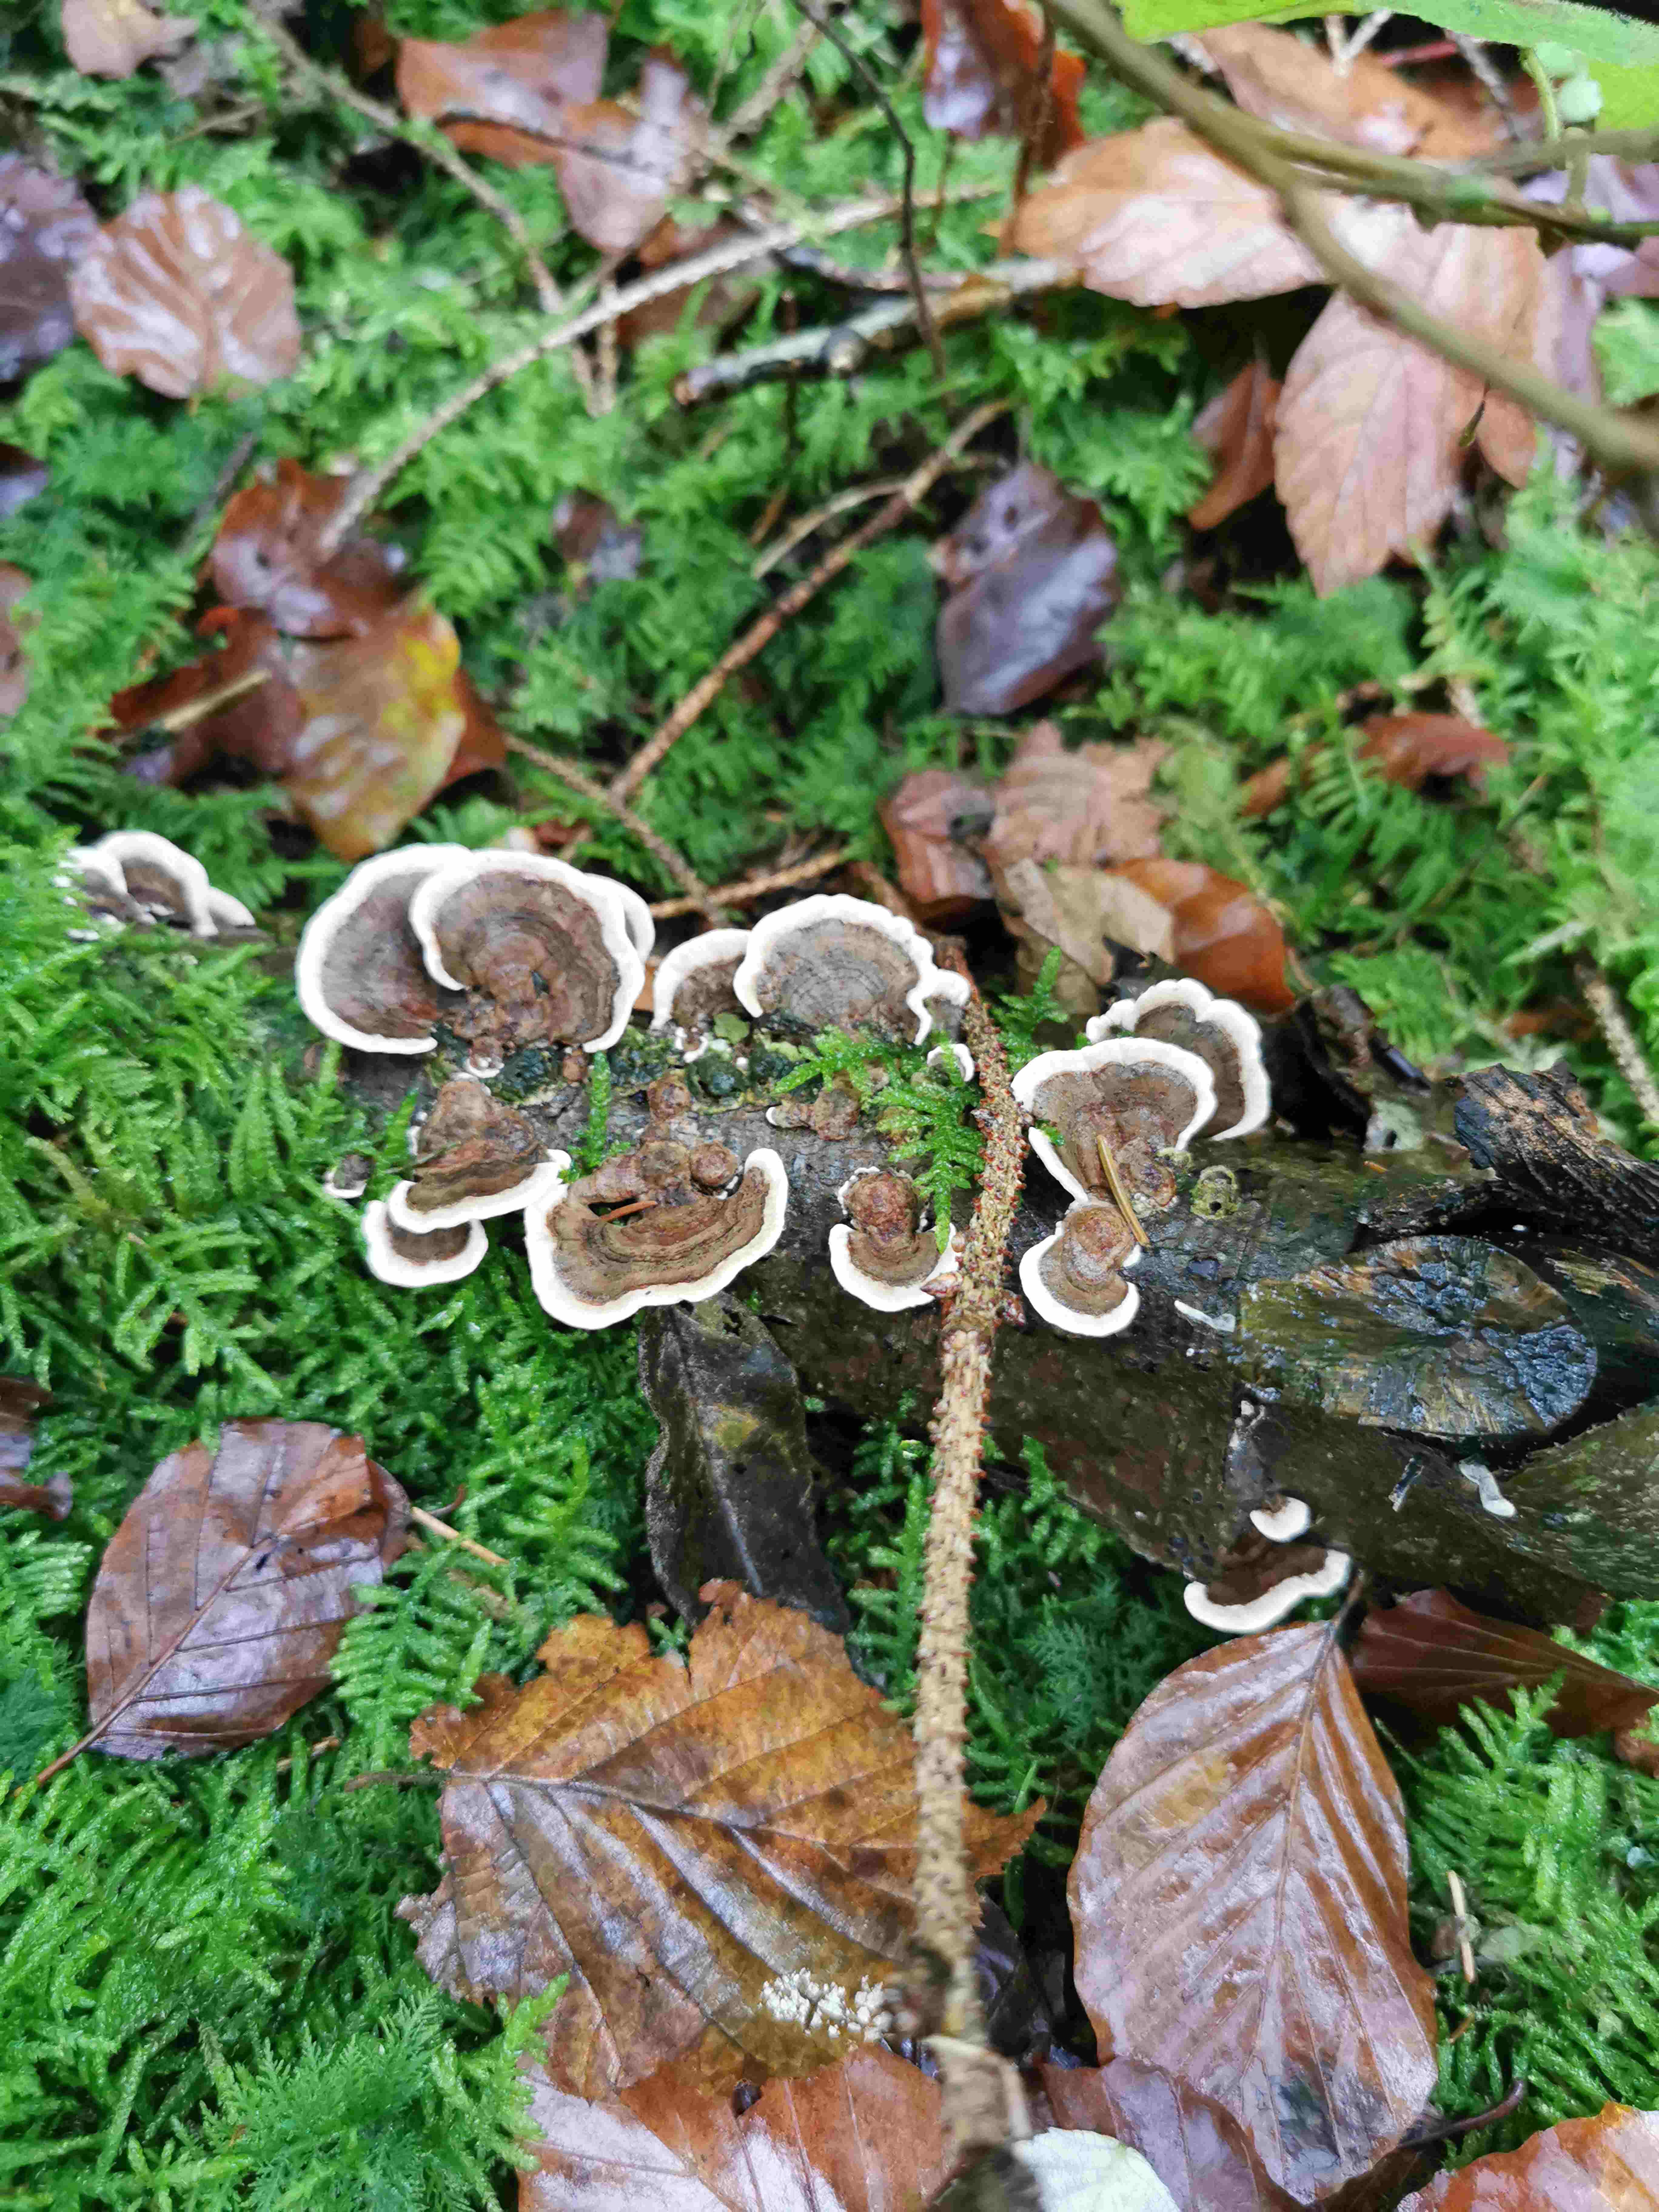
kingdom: Fungi
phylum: Basidiomycota
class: Agaricomycetes
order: Polyporales
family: Polyporaceae
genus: Trametes
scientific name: Trametes versicolor
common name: broget læderporesvamp
